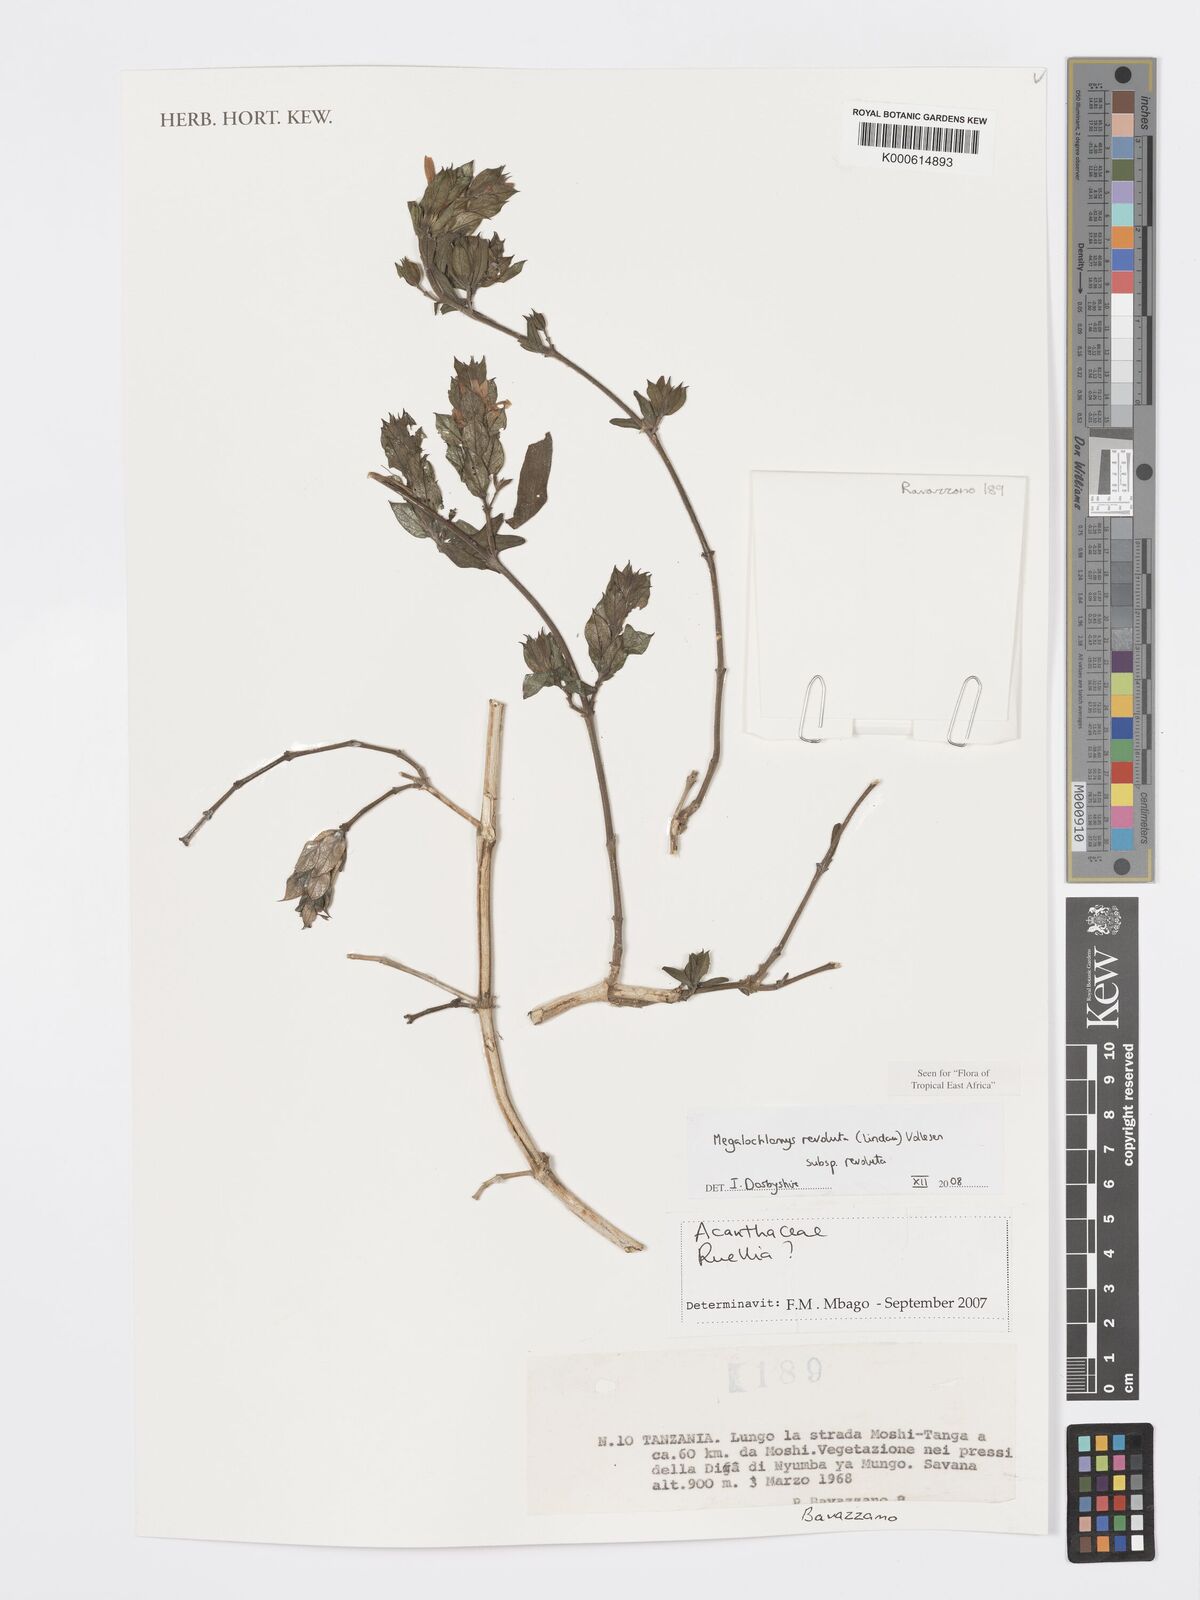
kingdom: Plantae
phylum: Tracheophyta
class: Magnoliopsida
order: Lamiales
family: Acanthaceae
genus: Megalochlamys
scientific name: Megalochlamys revoluta
